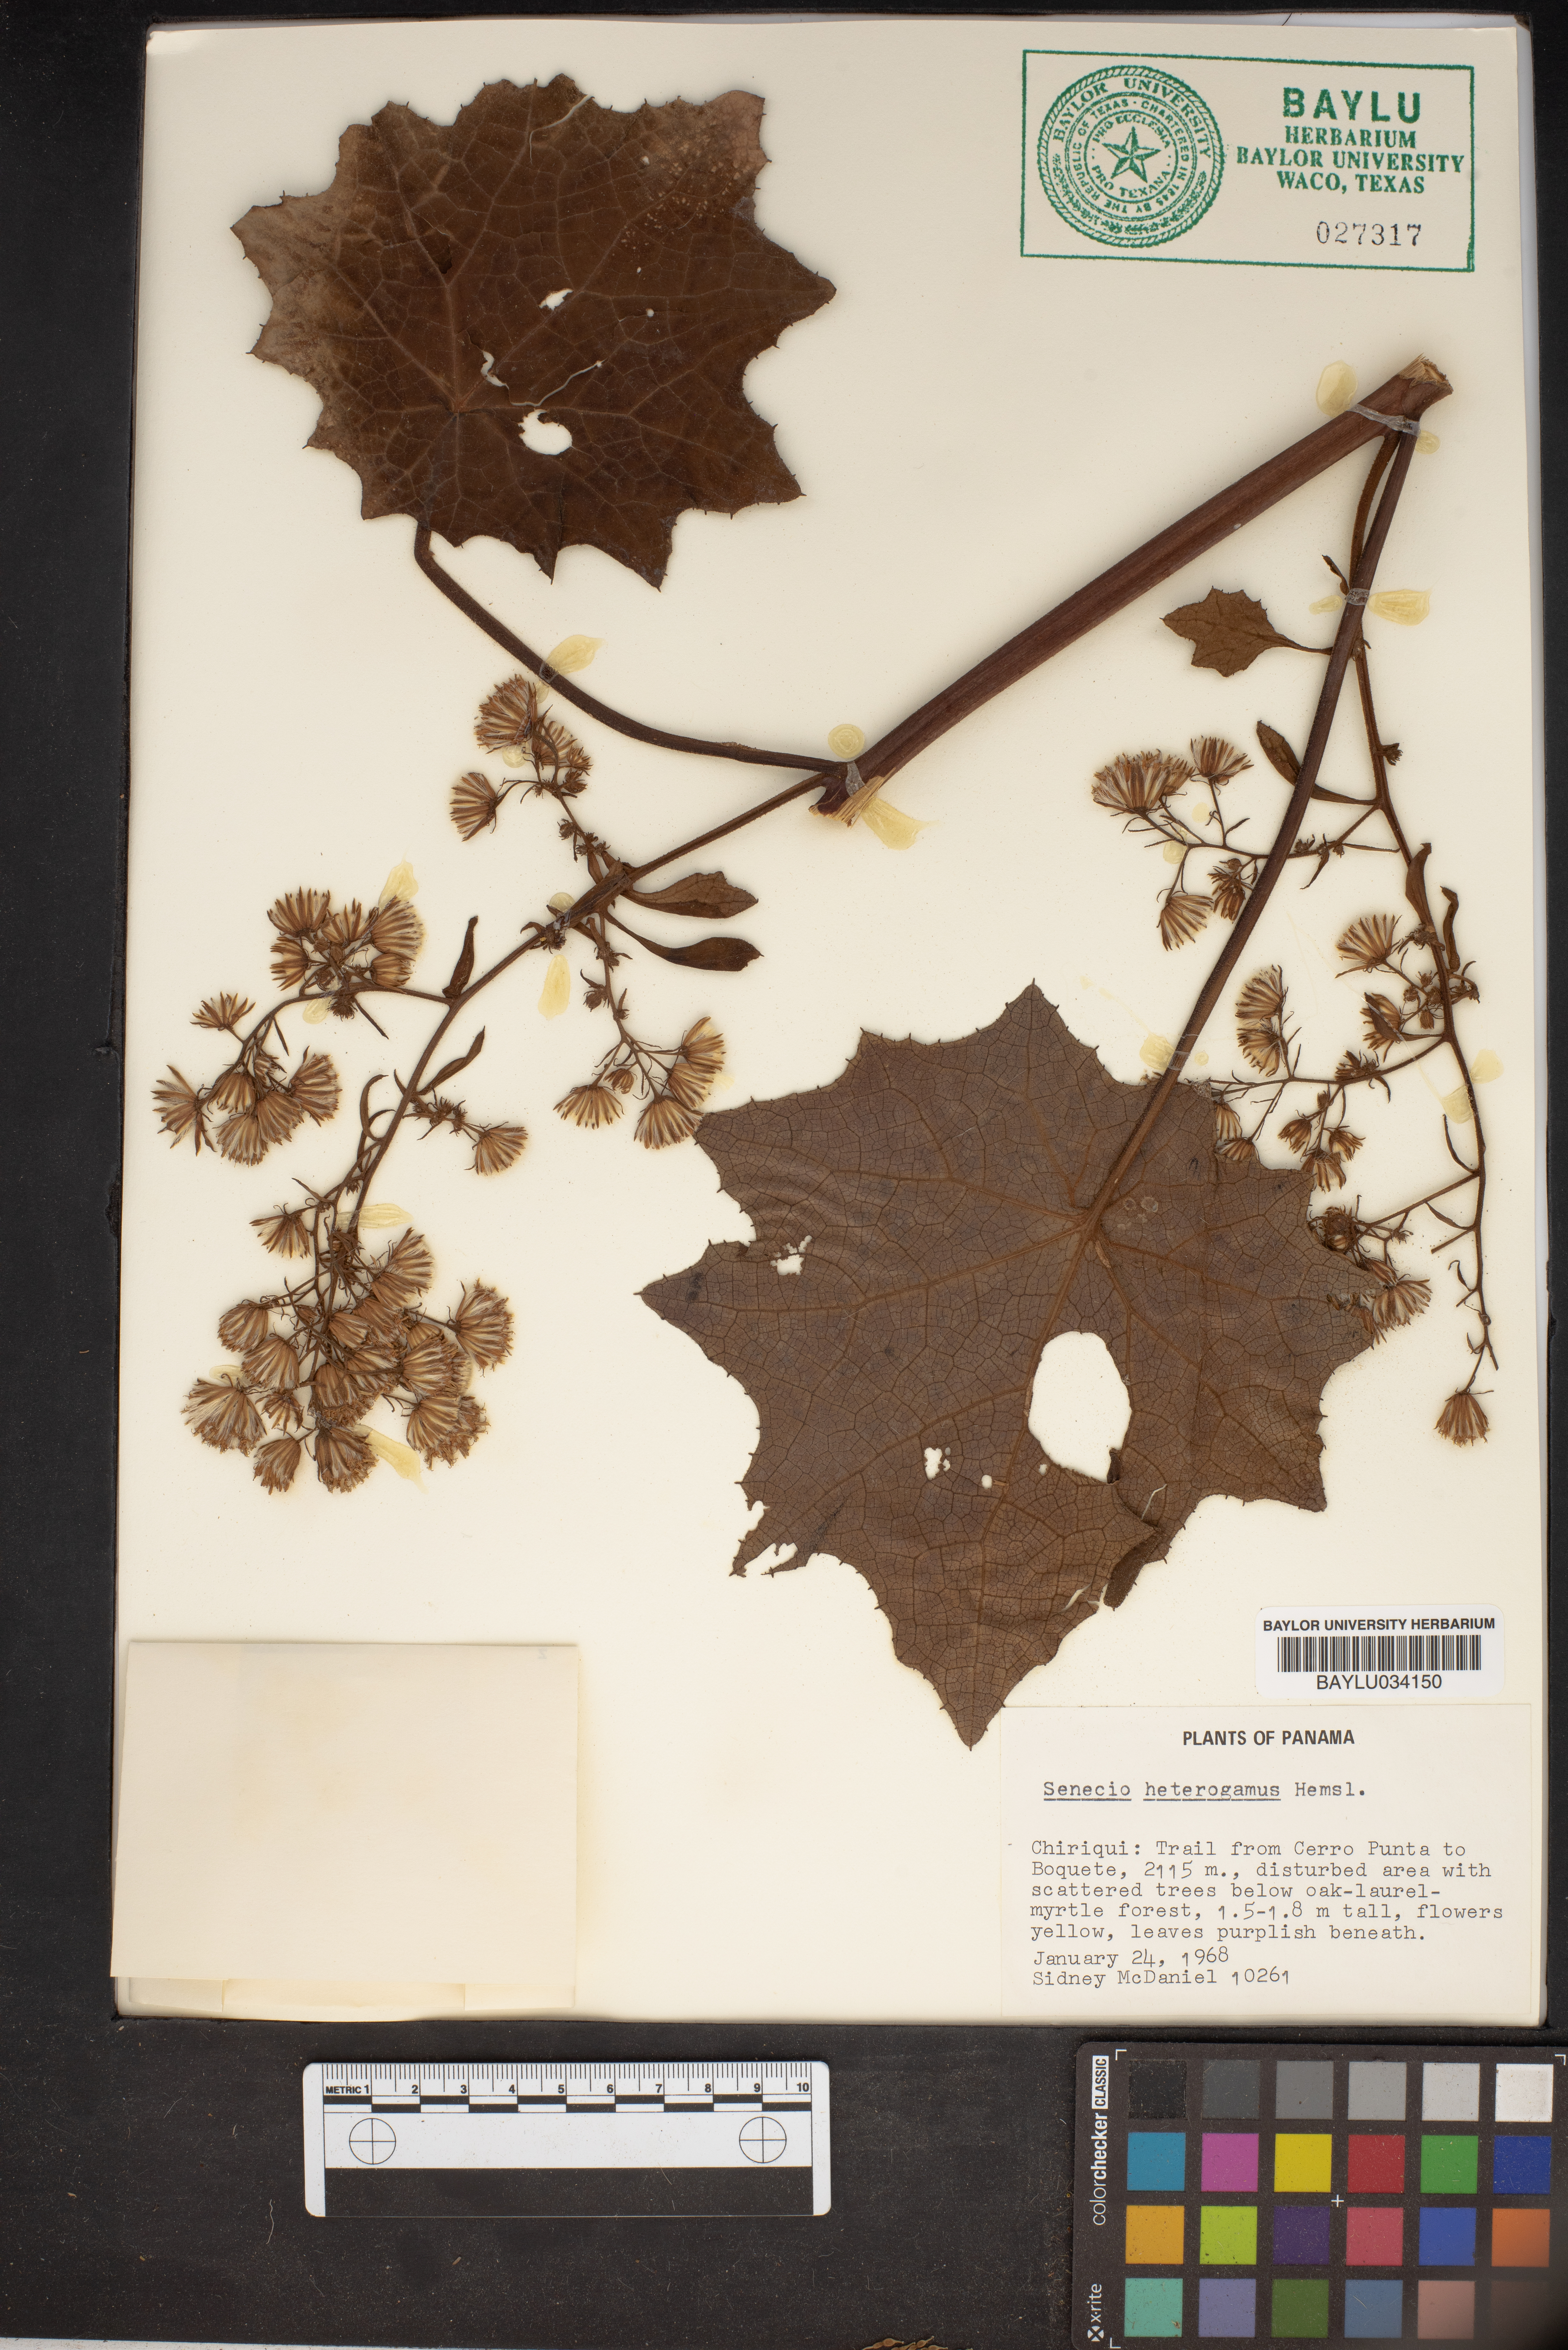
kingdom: Plantae
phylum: Tracheophyta
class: Magnoliopsida
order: Asterales
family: Asteraceae
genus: Roldana
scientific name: Roldana heterogama
